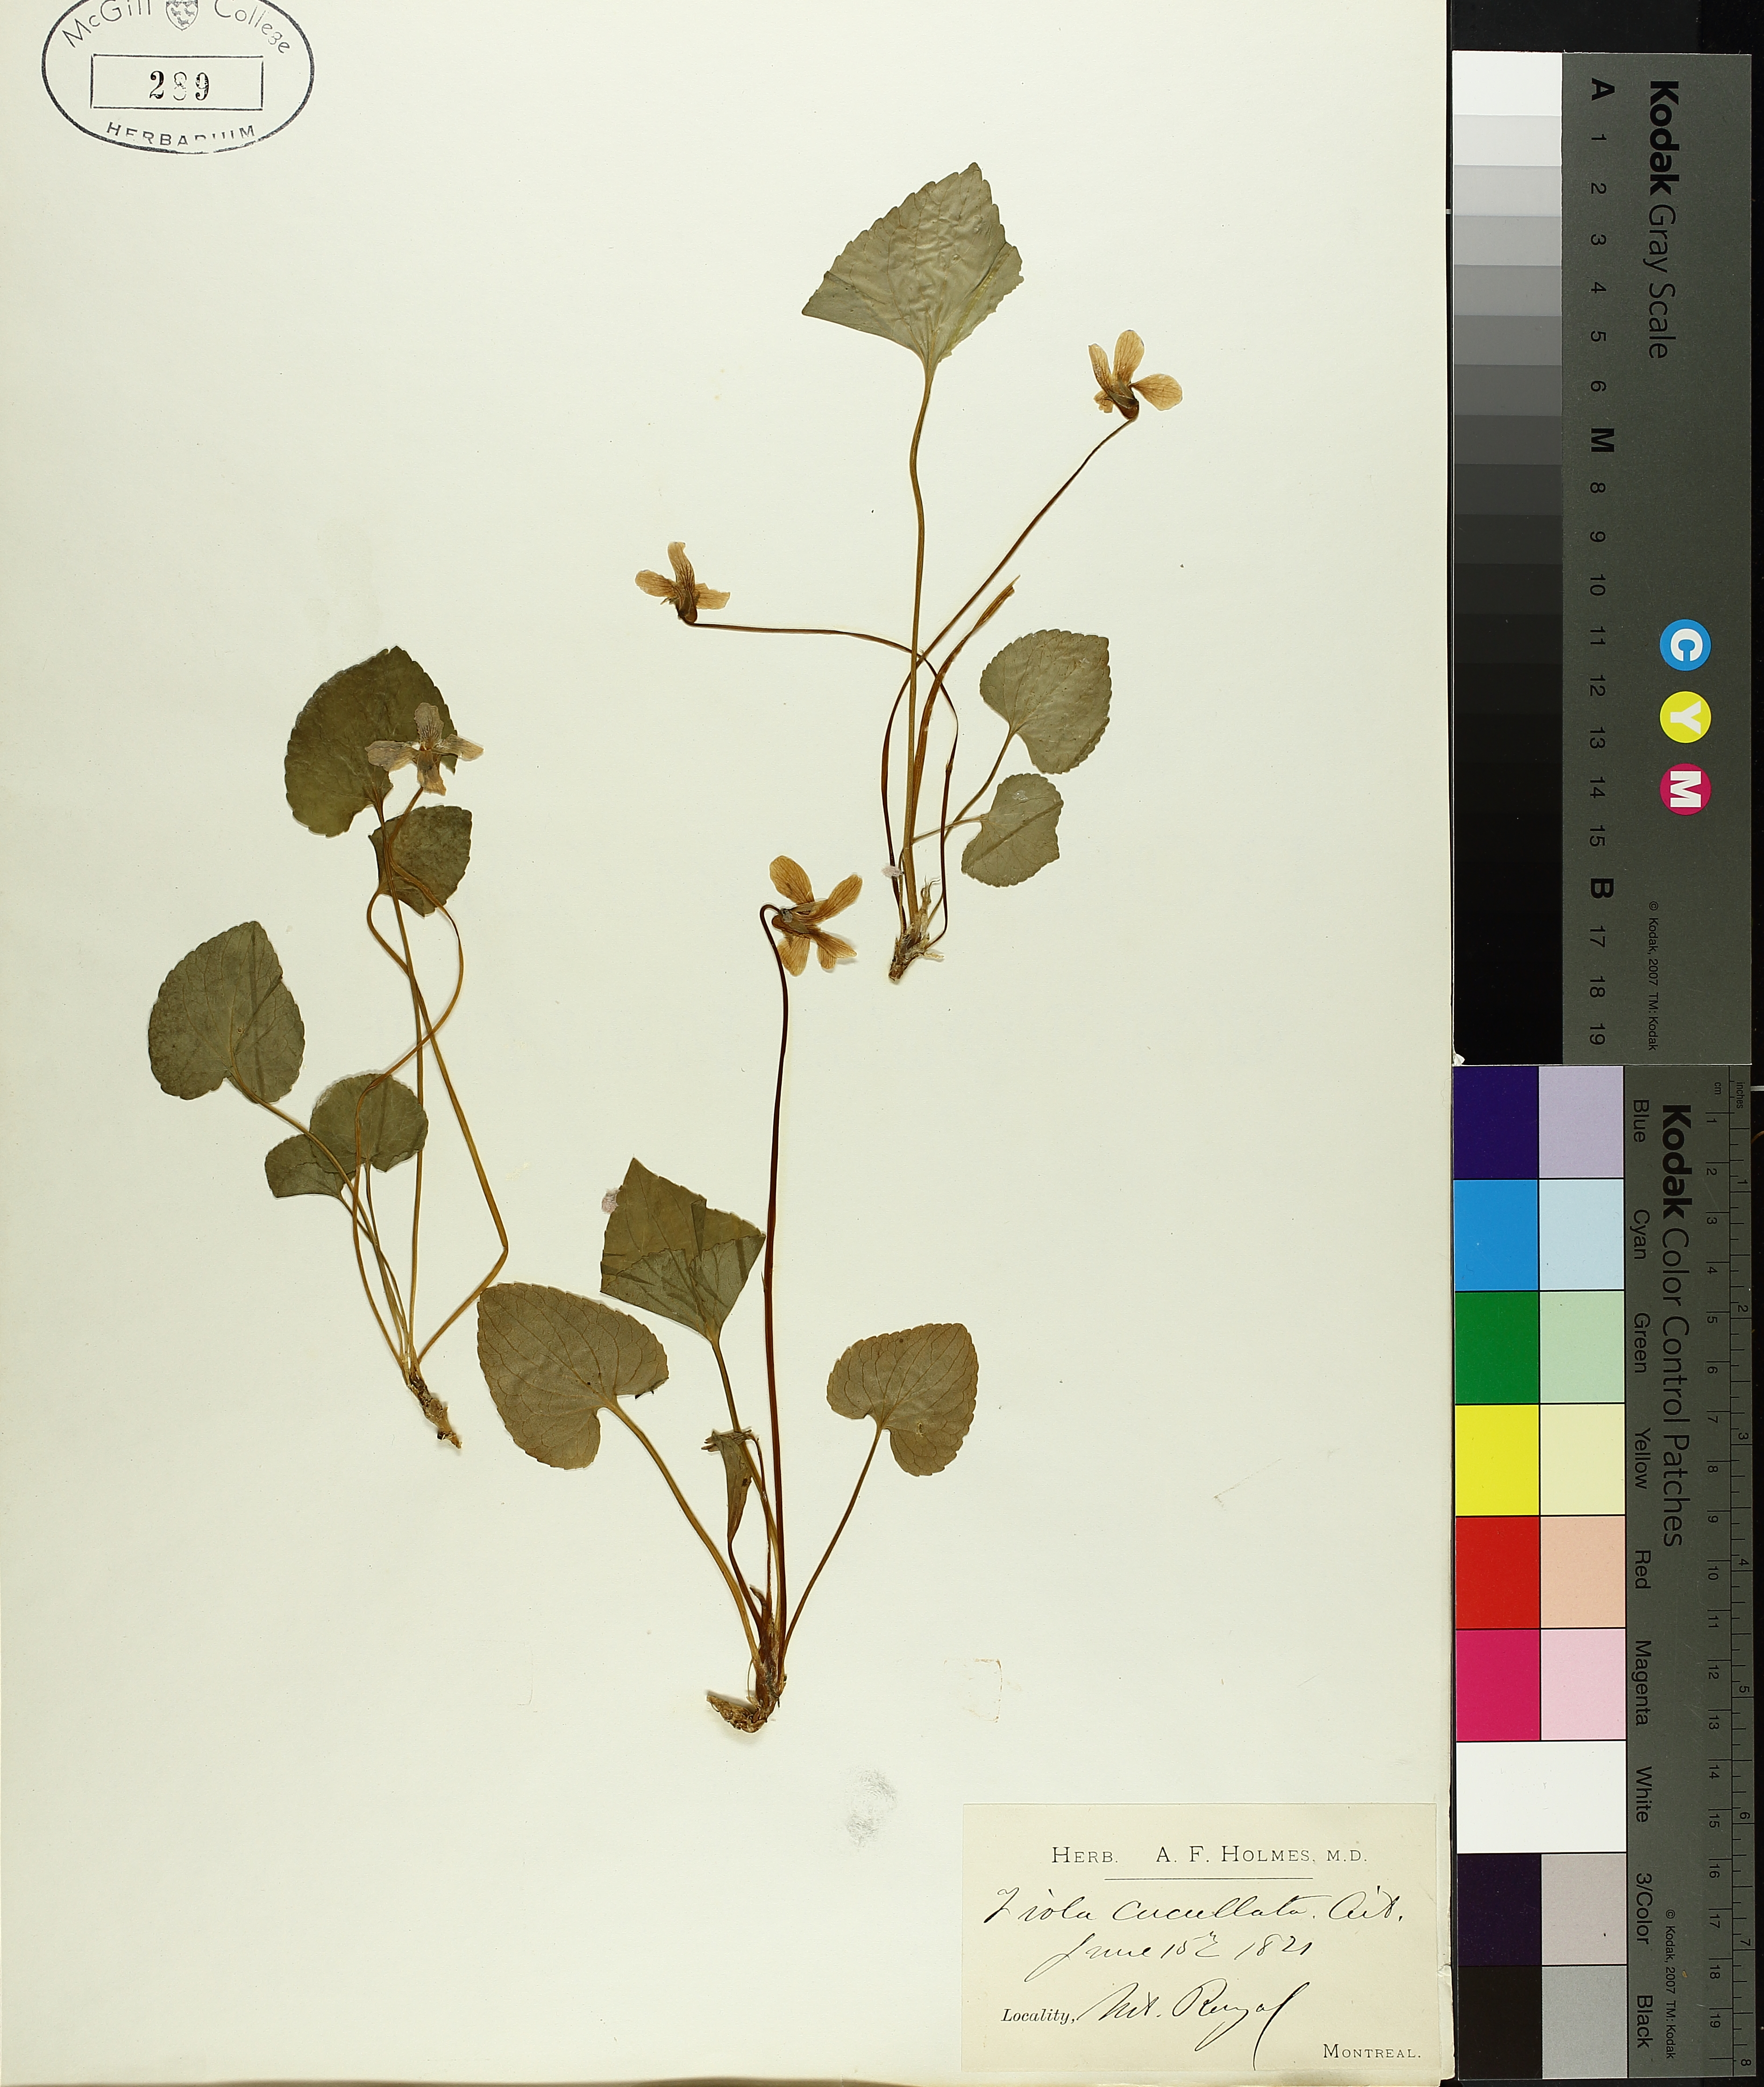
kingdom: Plantae
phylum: Tracheophyta
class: Magnoliopsida
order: Malpighiales
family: Violaceae
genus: Viola
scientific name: Viola cucullata
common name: Marsh blue violet
